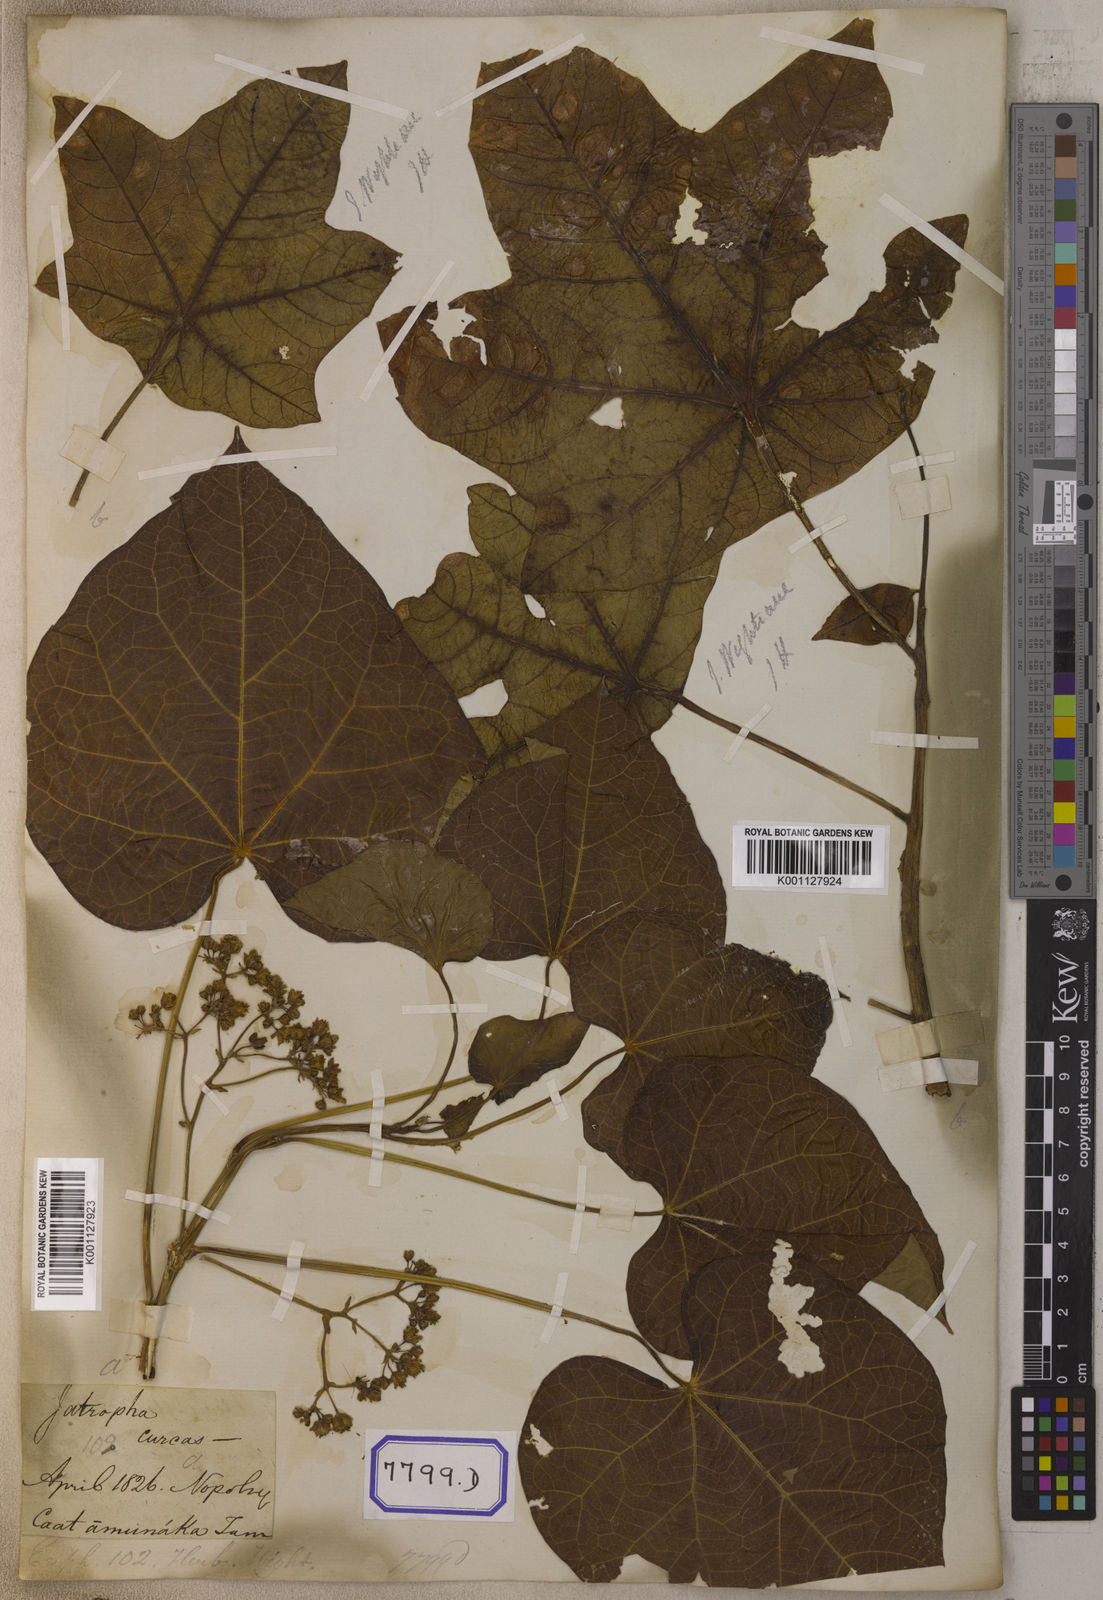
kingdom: Plantae
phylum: Tracheophyta
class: Magnoliopsida
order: Malpighiales
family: Euphorbiaceae
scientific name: Euphorbiaceae
